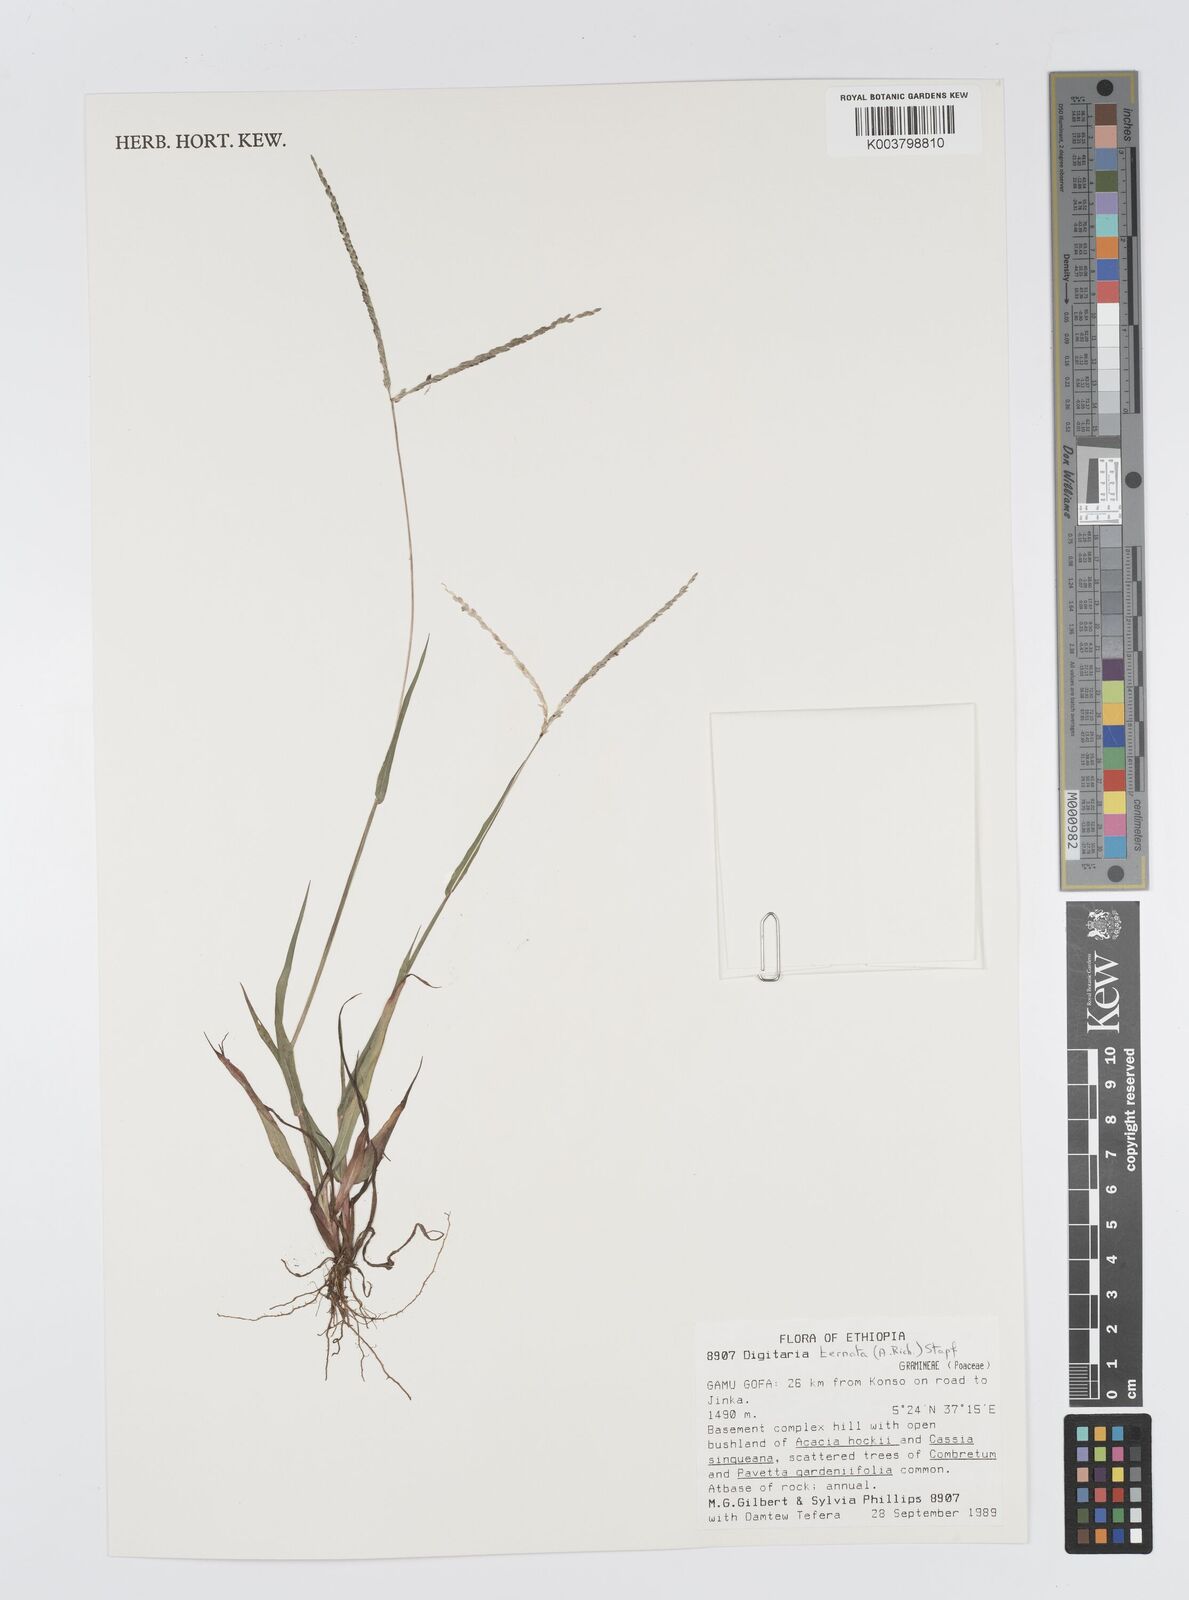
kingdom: Plantae
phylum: Tracheophyta
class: Liliopsida
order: Poales
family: Poaceae
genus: Digitaria
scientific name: Digitaria ternata
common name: Blackseed crabgrass
